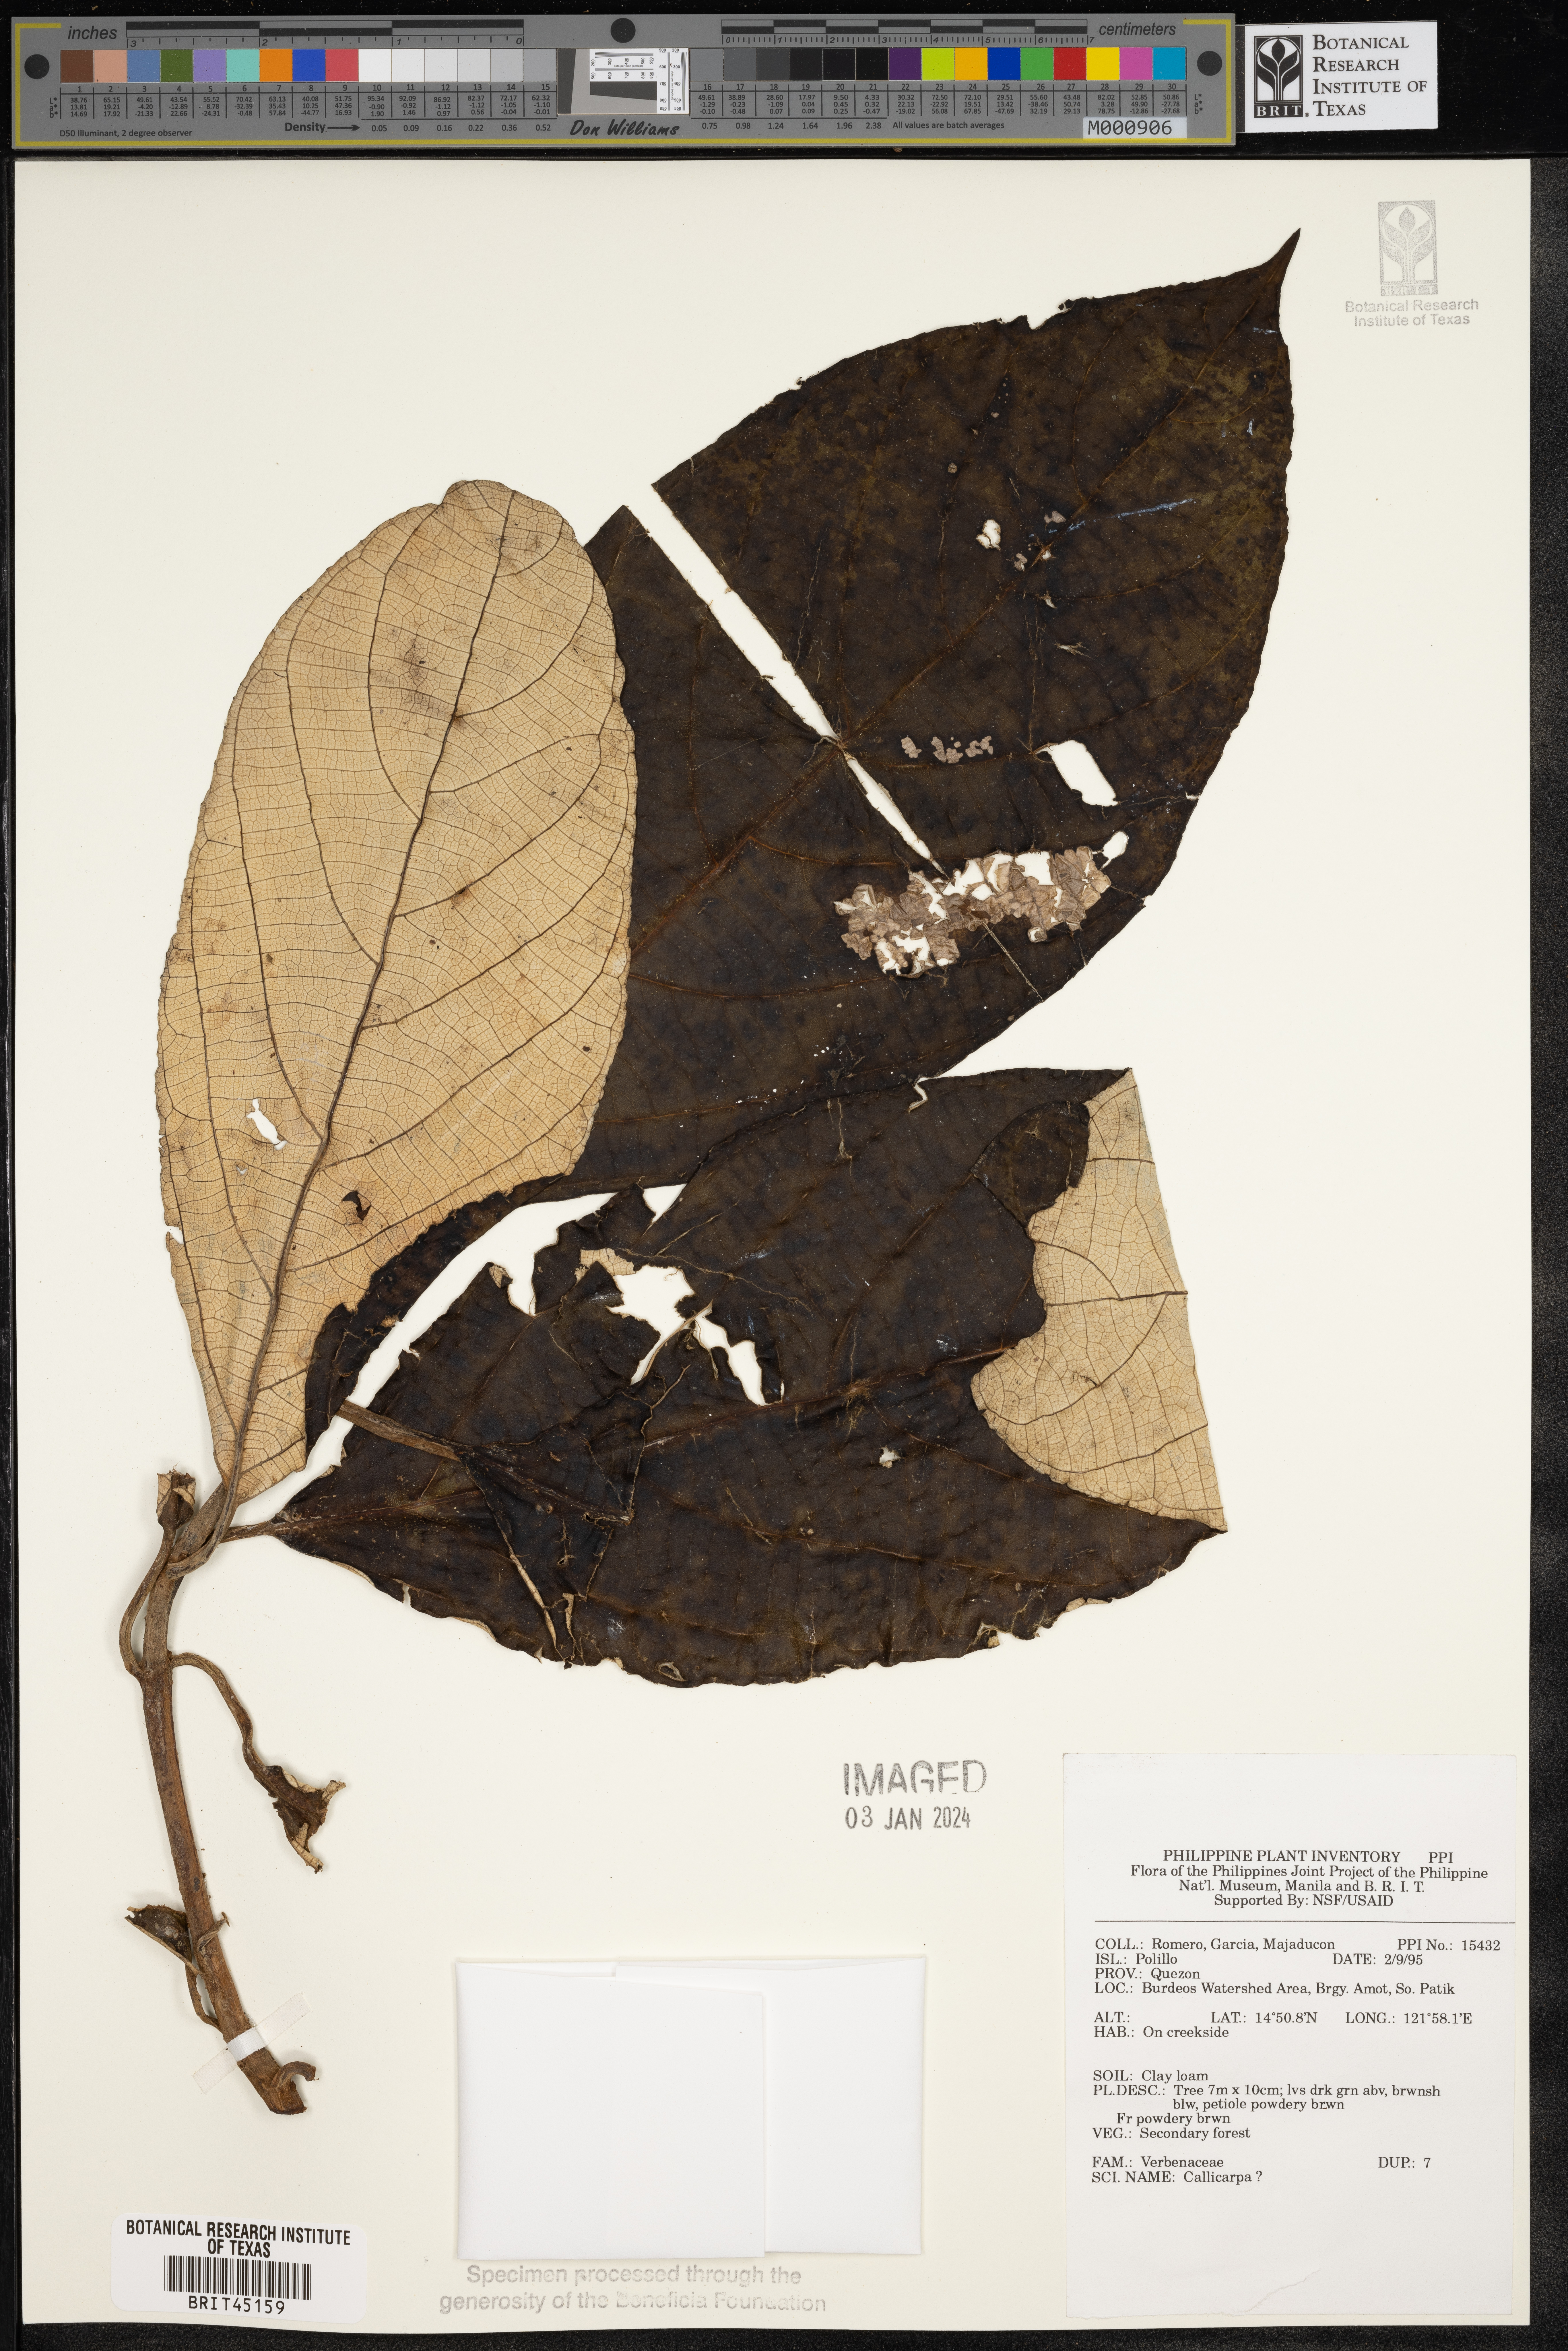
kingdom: Plantae
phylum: Tracheophyta
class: Magnoliopsida
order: Lamiales
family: Lamiaceae
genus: Callicarpa
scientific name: Callicarpa
